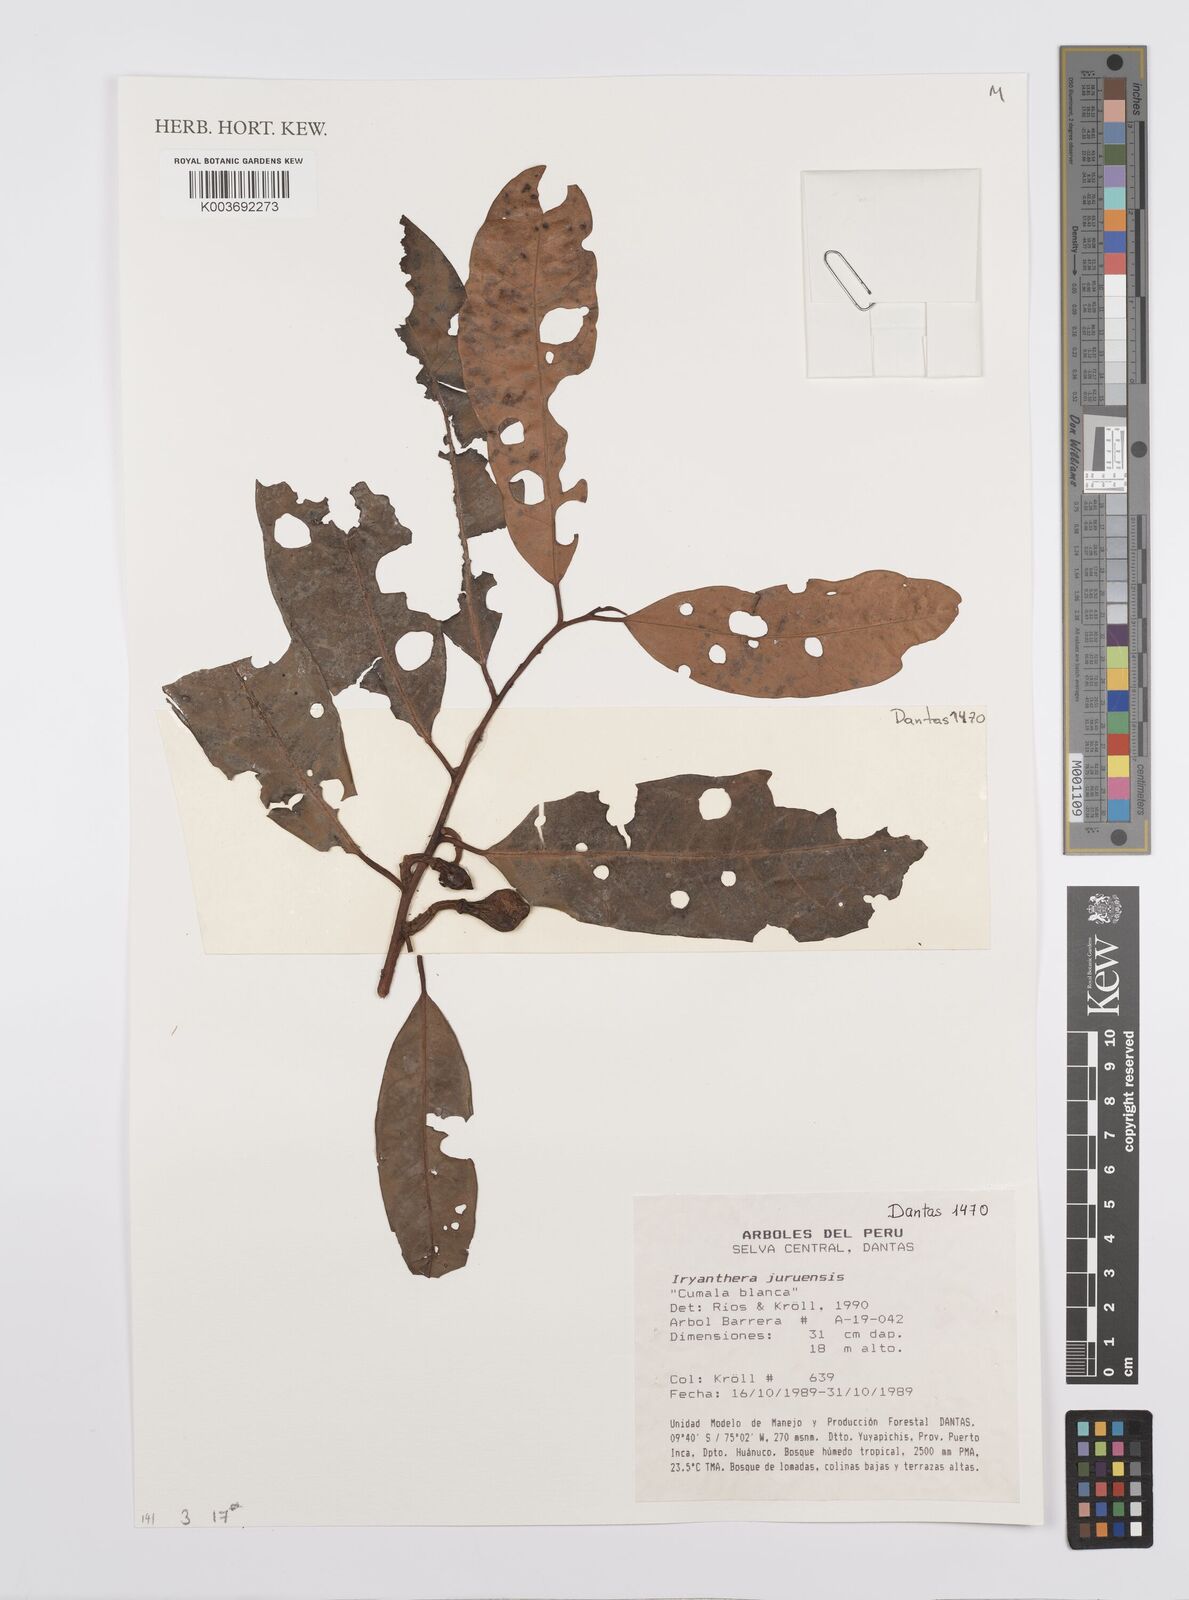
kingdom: Plantae
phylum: Tracheophyta
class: Magnoliopsida
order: Magnoliales
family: Myristicaceae
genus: Iryanthera
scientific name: Iryanthera juruensis
